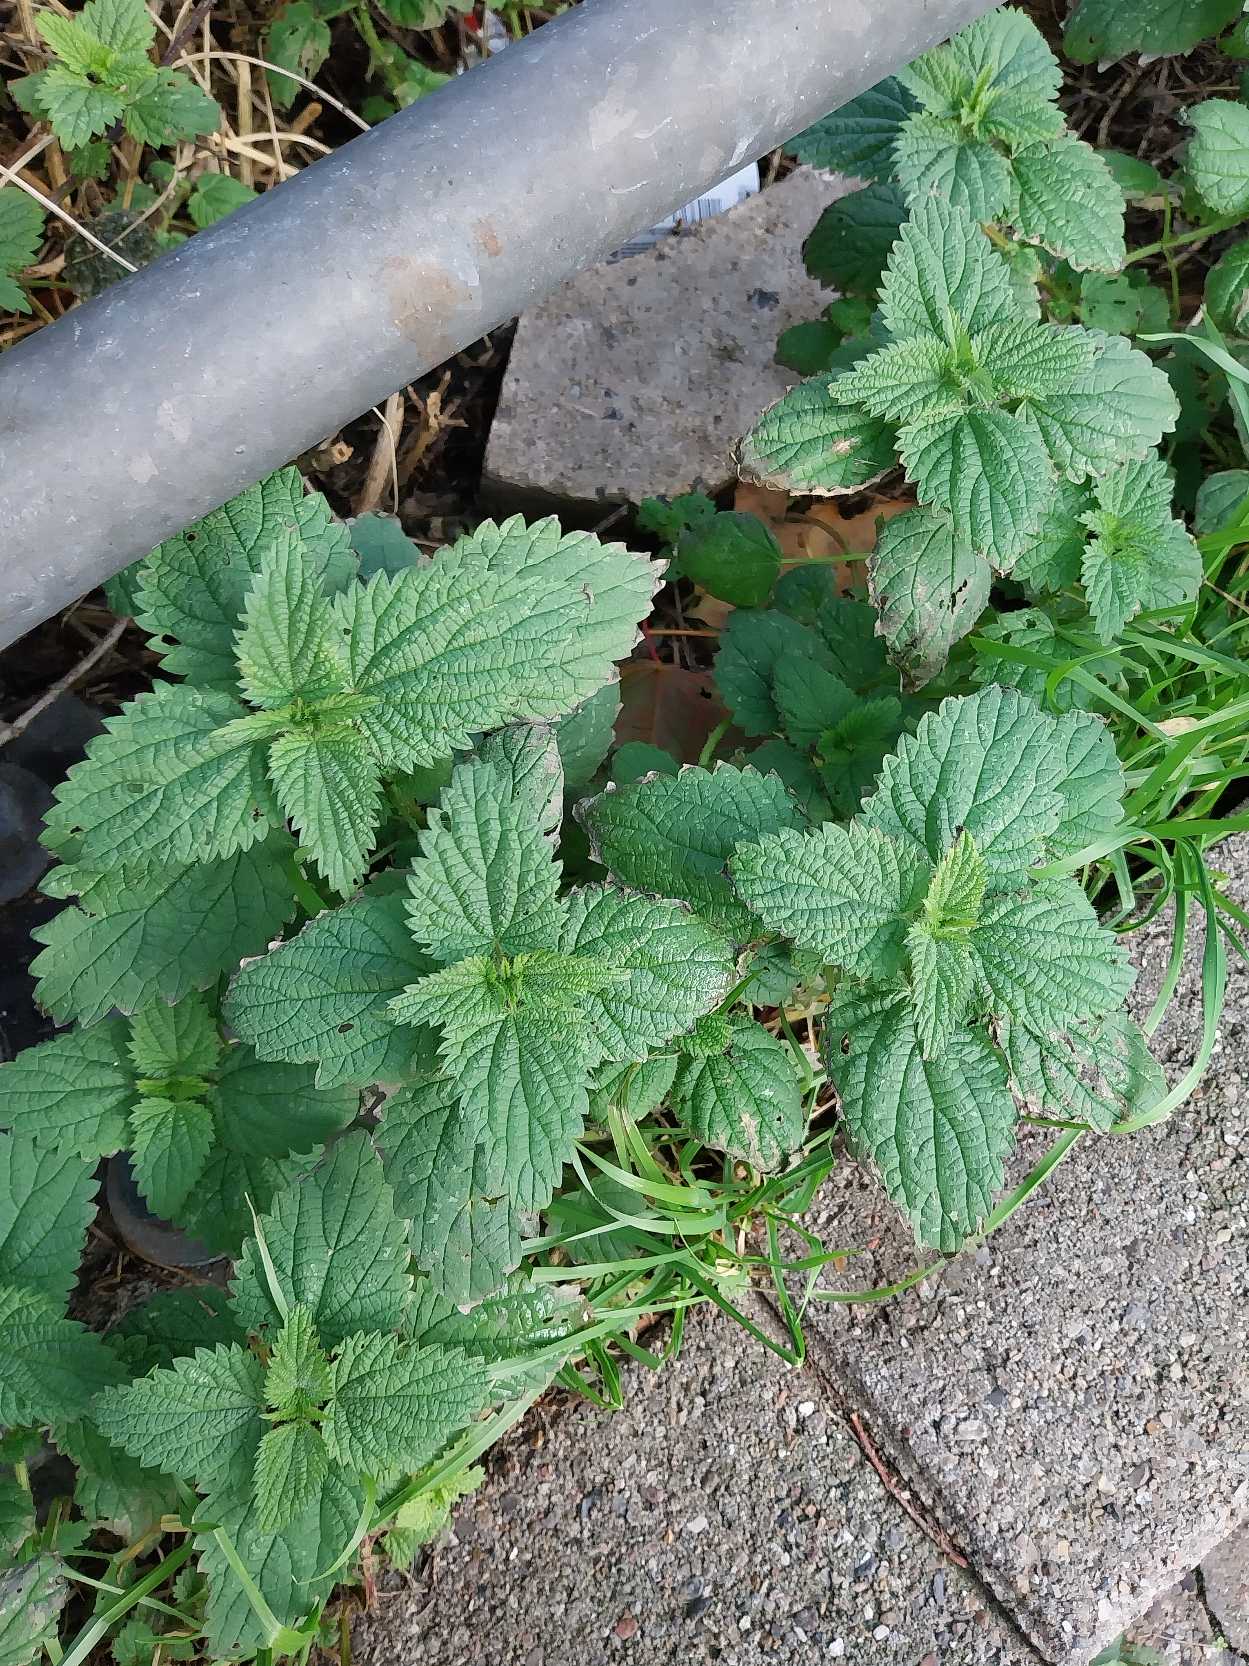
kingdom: Plantae
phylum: Tracheophyta
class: Magnoliopsida
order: Rosales
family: Urticaceae
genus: Urtica
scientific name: Urtica dioica
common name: Stor nælde
